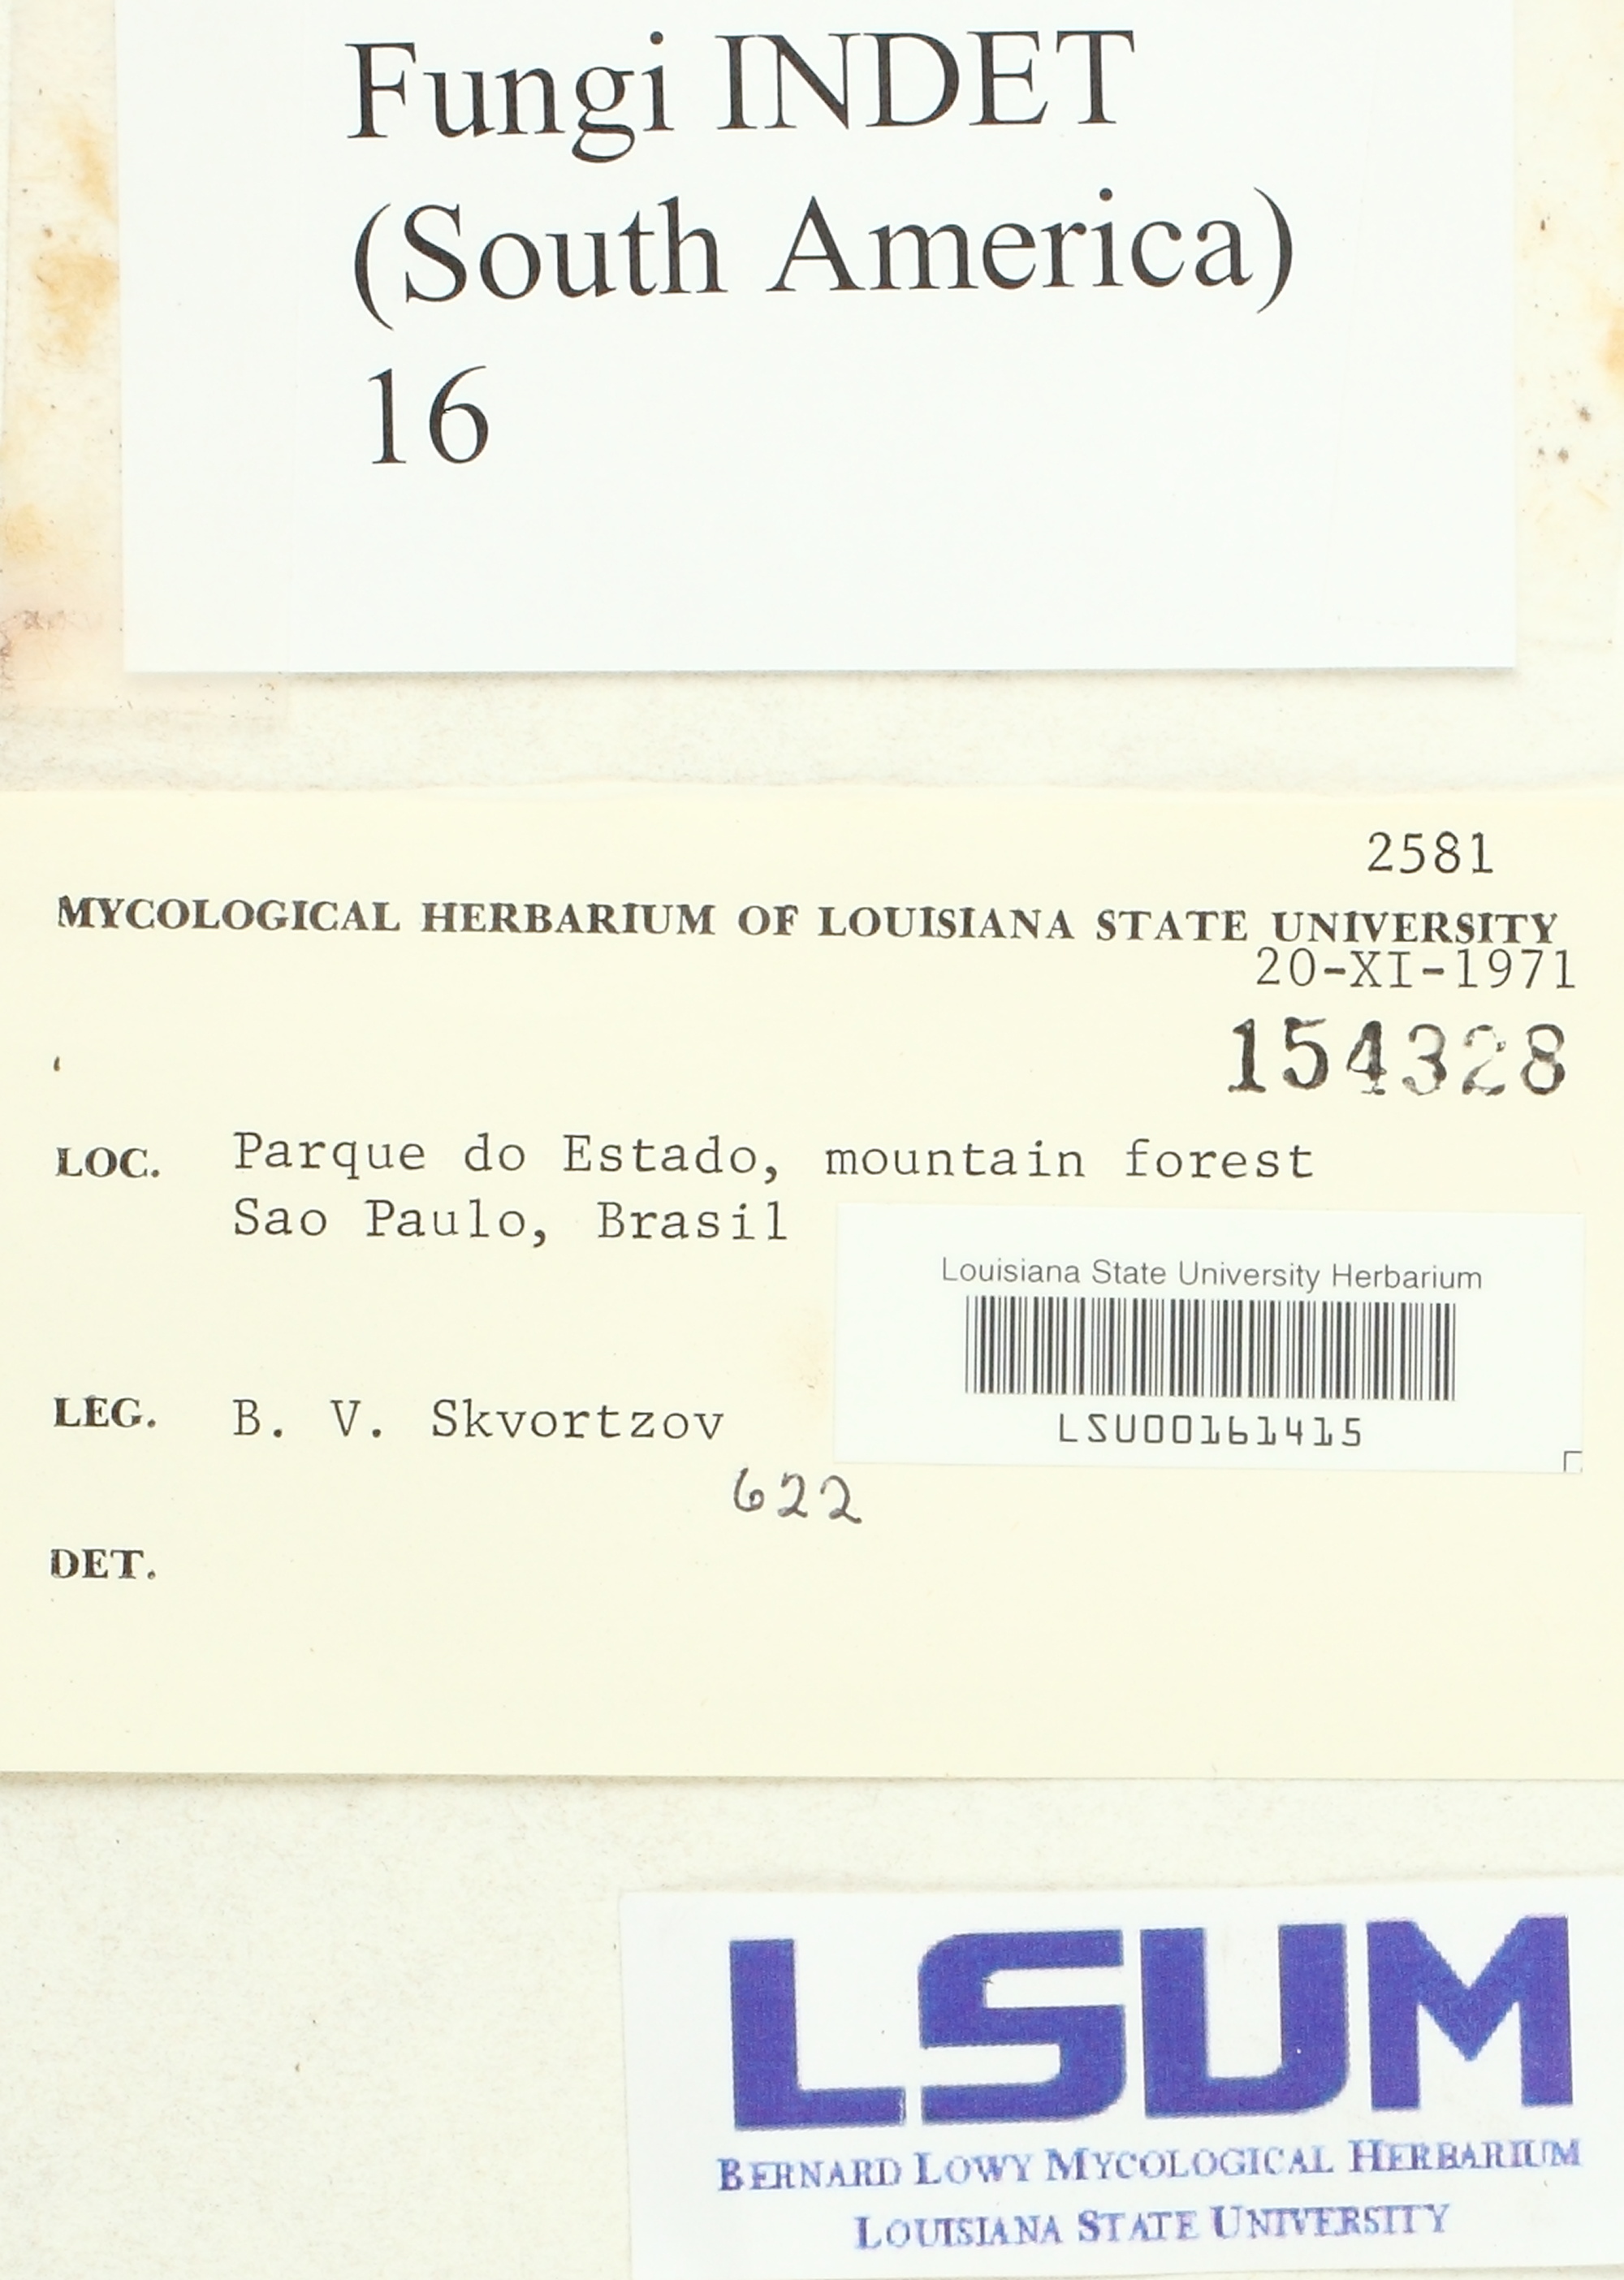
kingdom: Fungi
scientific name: Fungi
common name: Fungi
